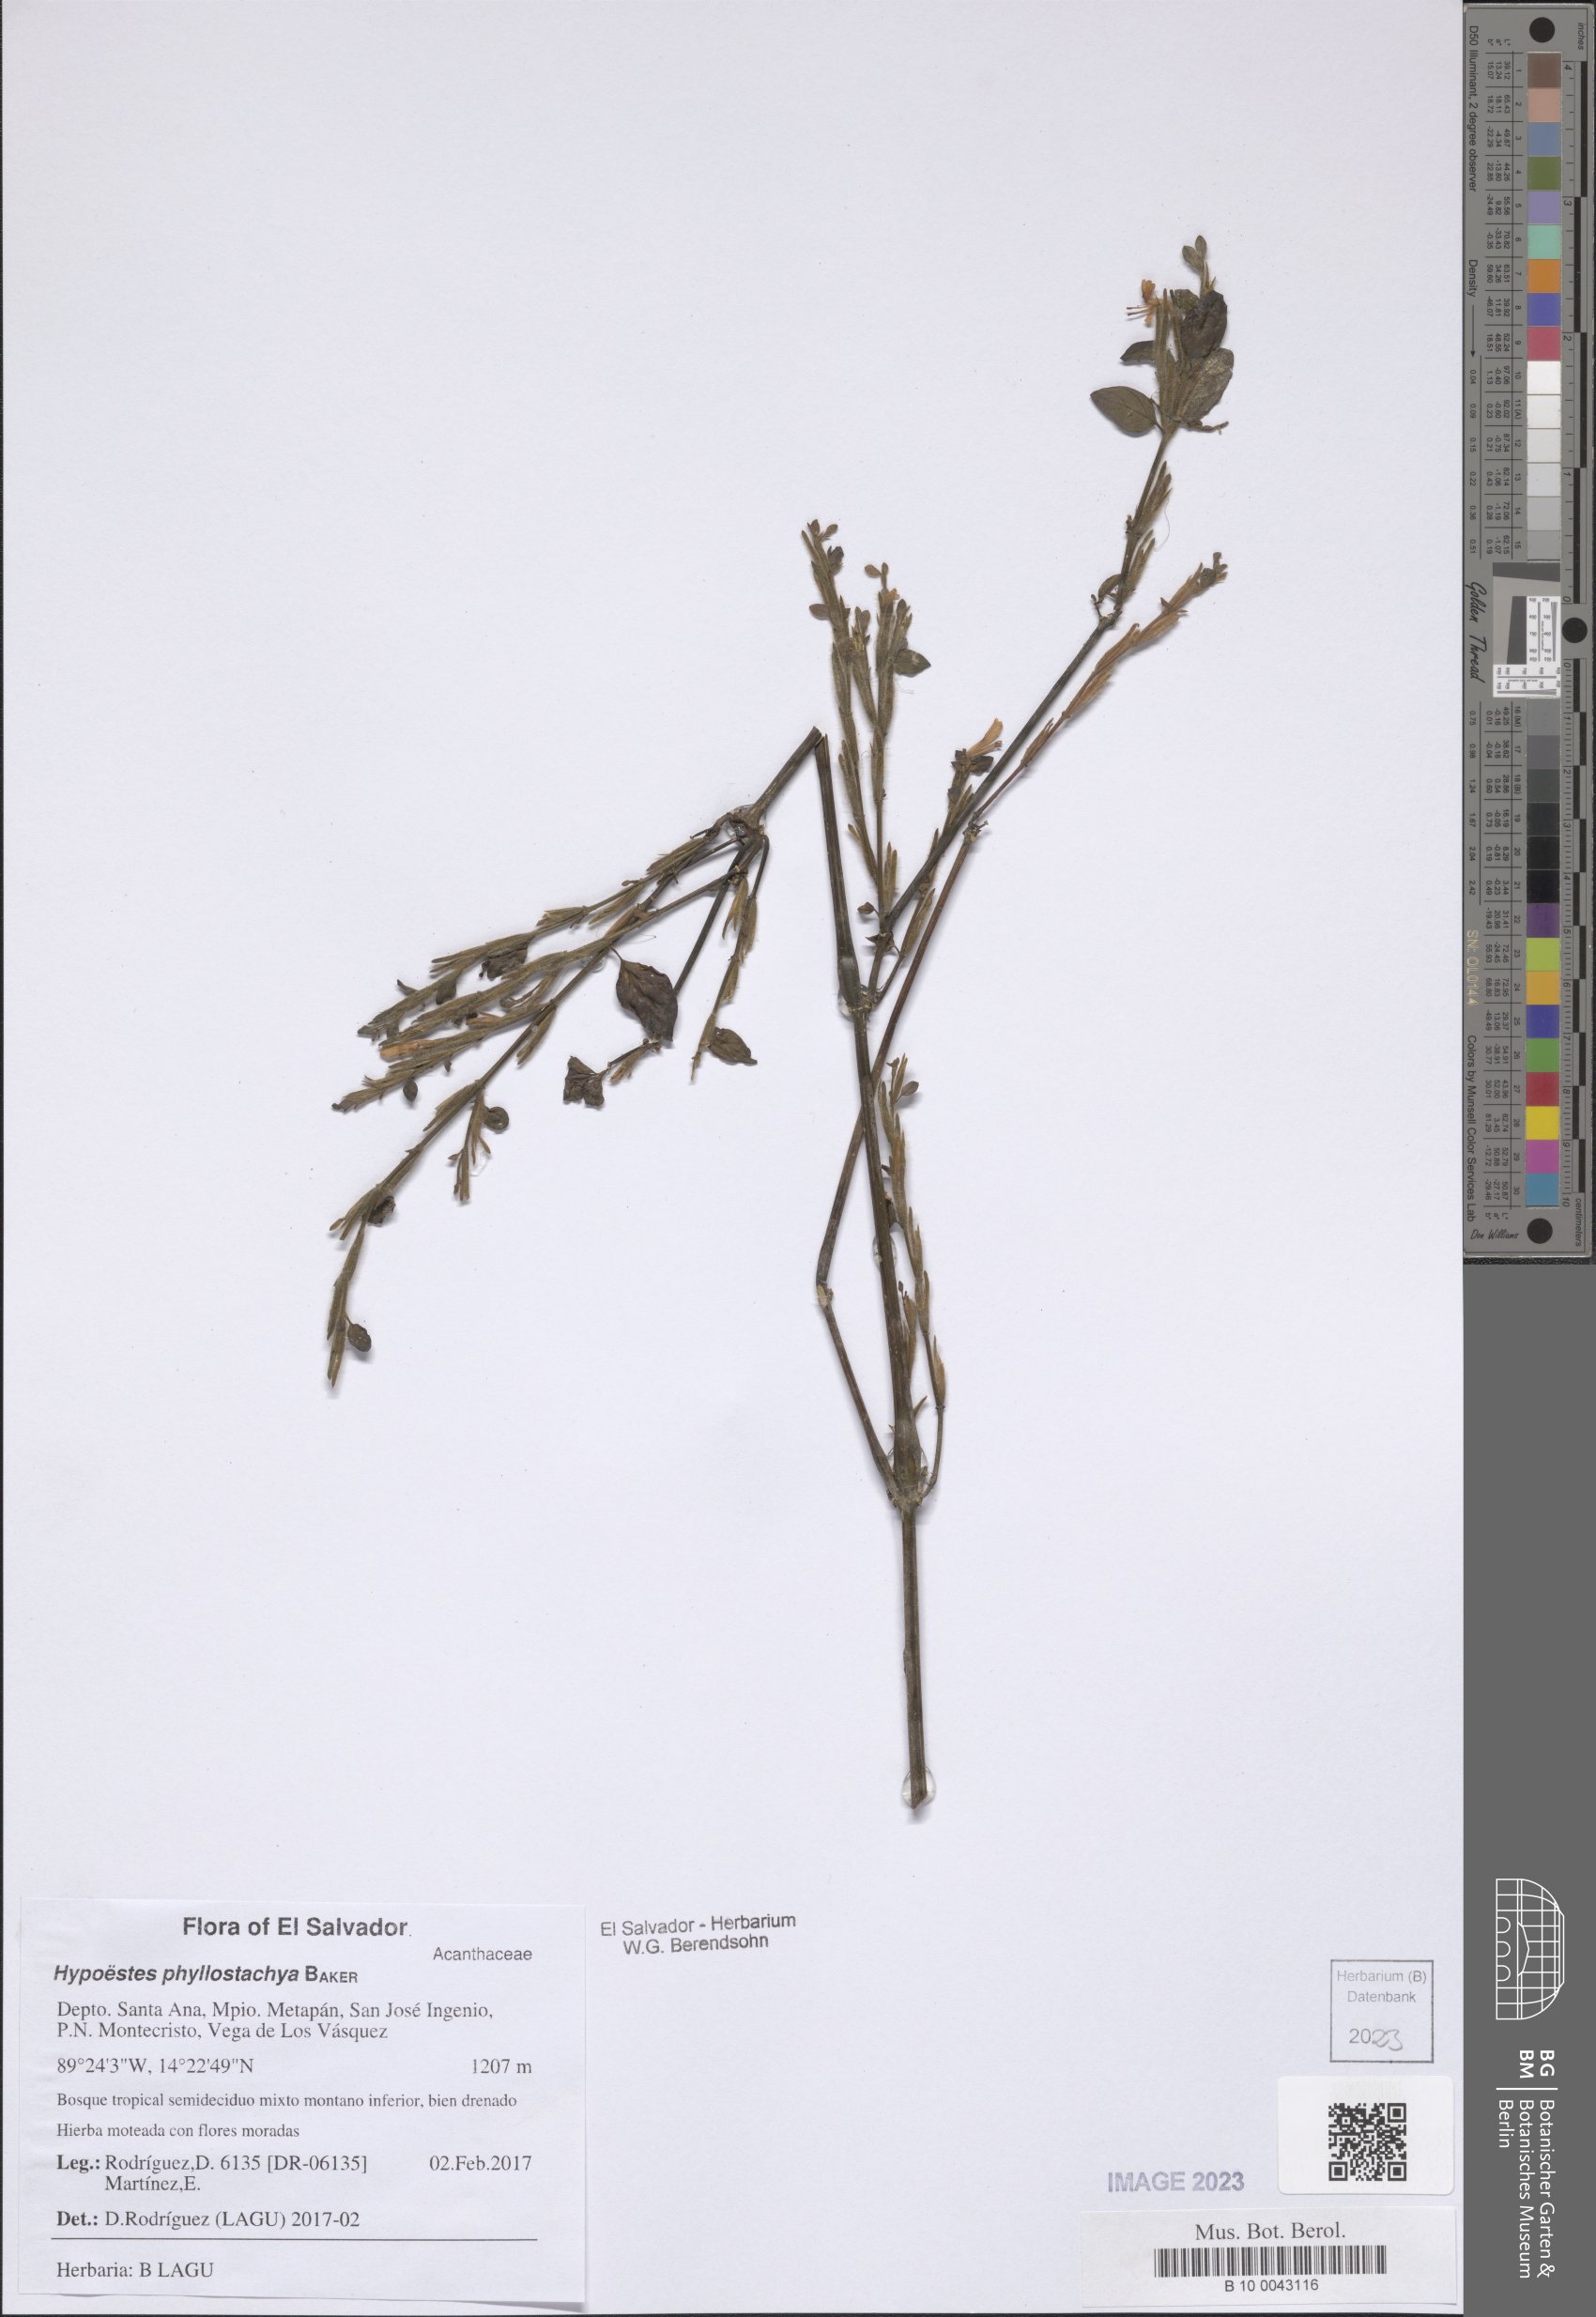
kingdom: Plantae
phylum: Tracheophyta
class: Magnoliopsida
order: Lamiales
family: Acanthaceae
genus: Hypoestes
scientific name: Hypoestes phyllostachya
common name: Polkadot-plant
